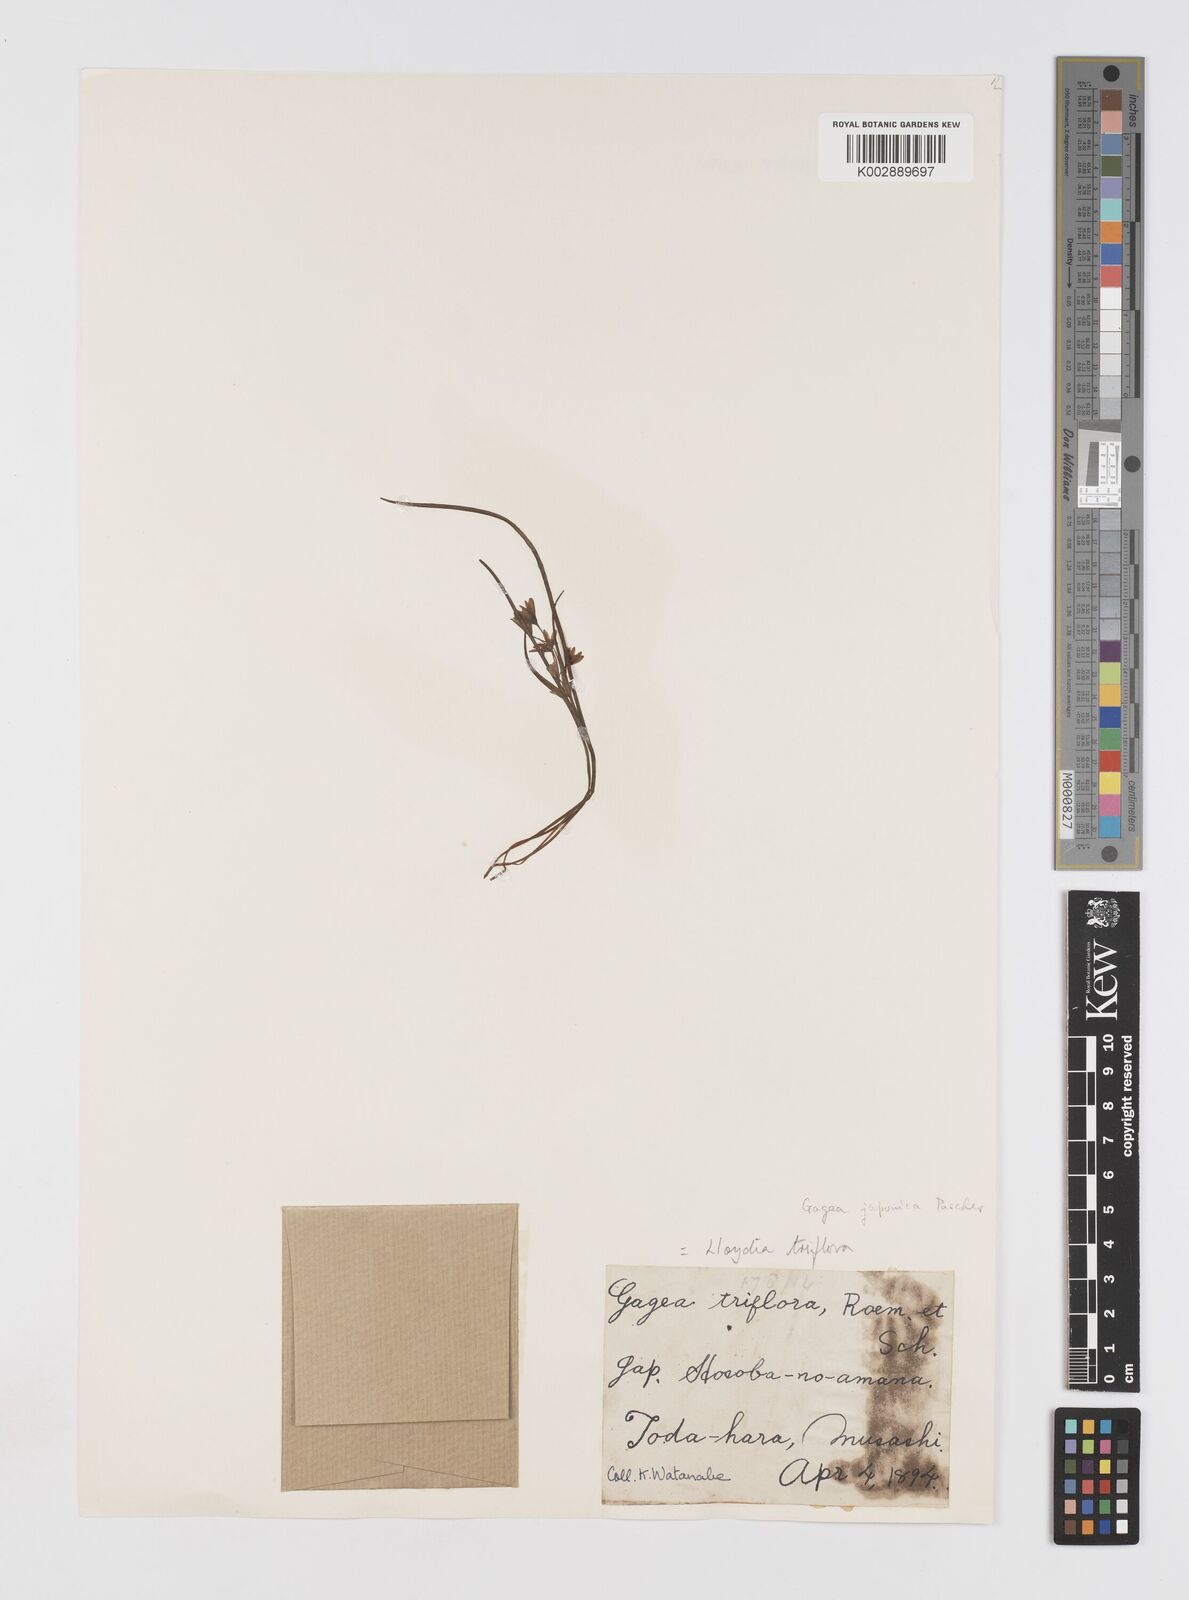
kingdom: Plantae
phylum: Tracheophyta
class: Liliopsida
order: Liliales
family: Liliaceae
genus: Gagea
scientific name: Gagea triflora
